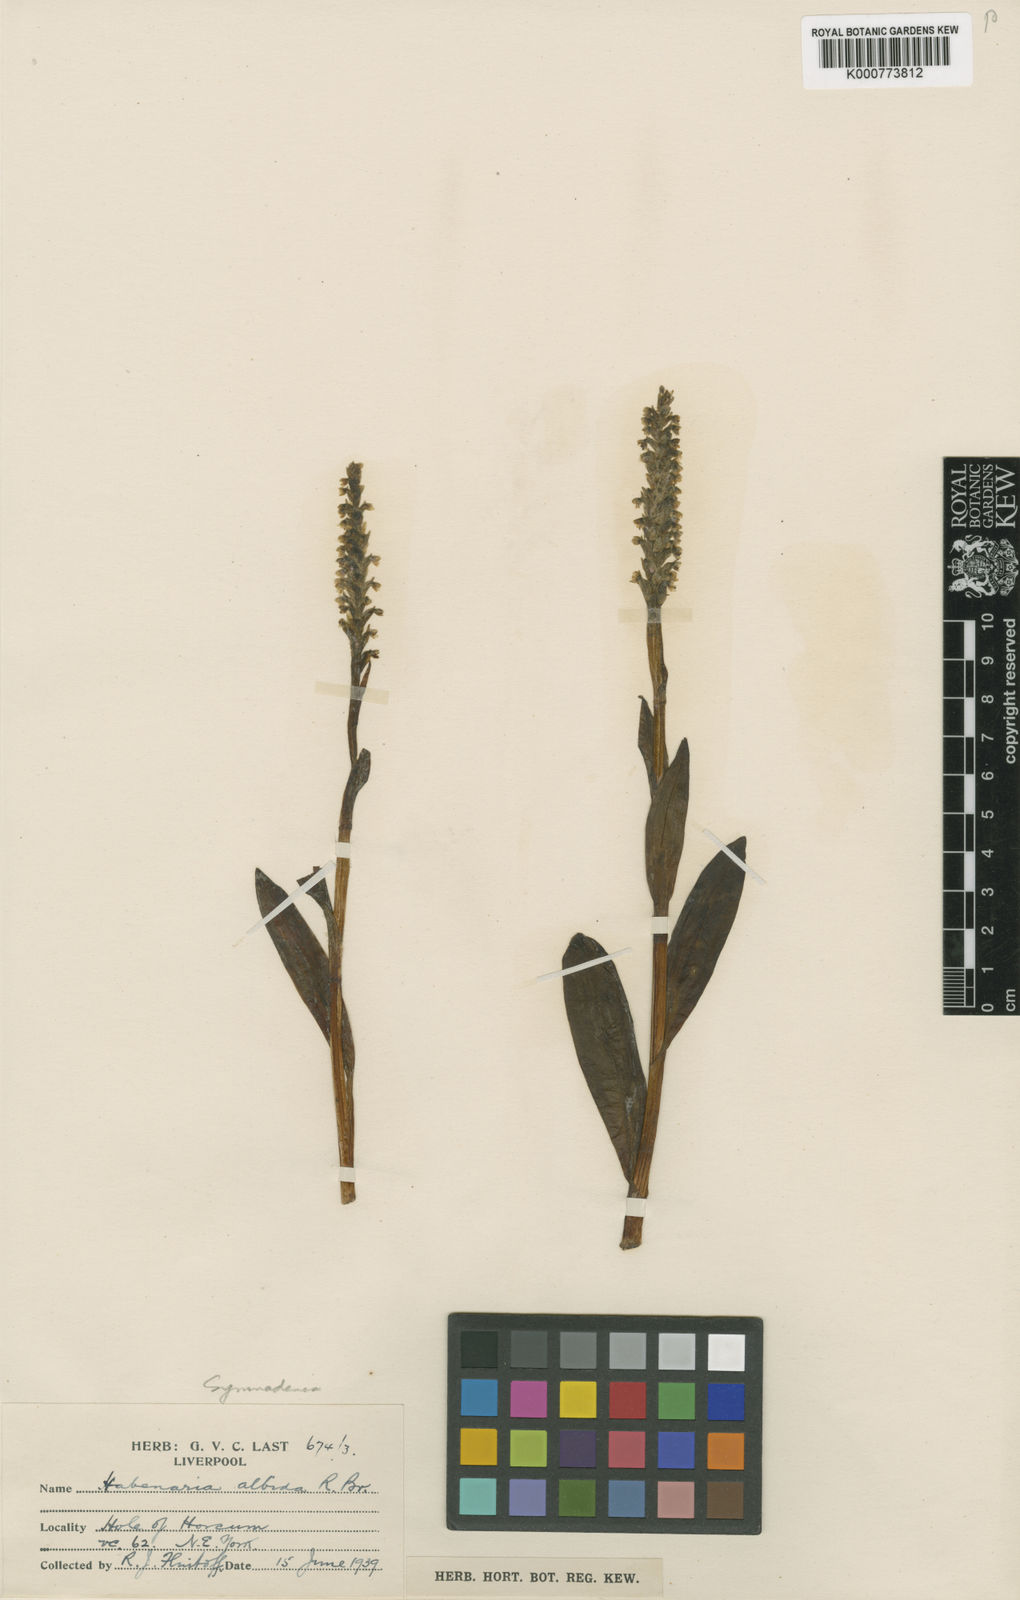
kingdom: Plantae
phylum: Tracheophyta
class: Liliopsida
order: Asparagales
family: Orchidaceae
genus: Pseudorchis
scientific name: Pseudorchis
